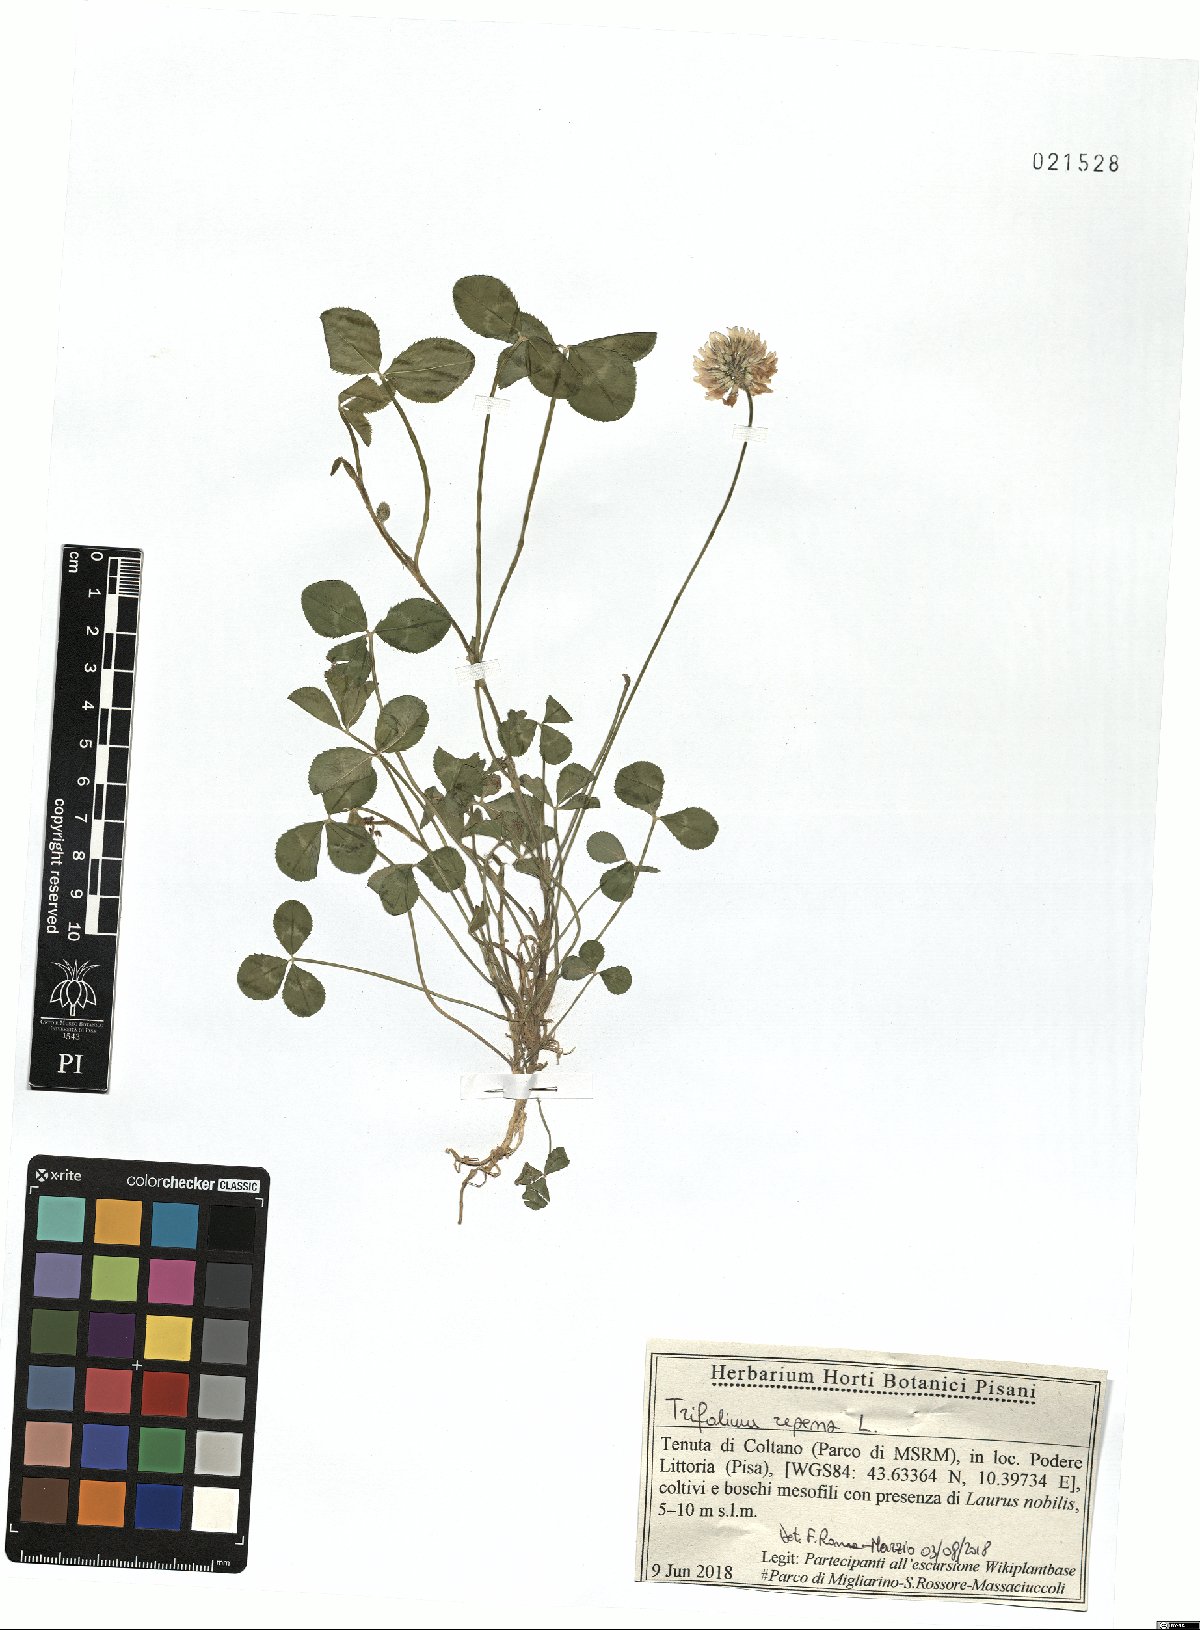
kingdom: Plantae
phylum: Tracheophyta
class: Magnoliopsida
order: Fabales
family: Fabaceae
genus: Trifolium
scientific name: Trifolium repens
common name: White clover
